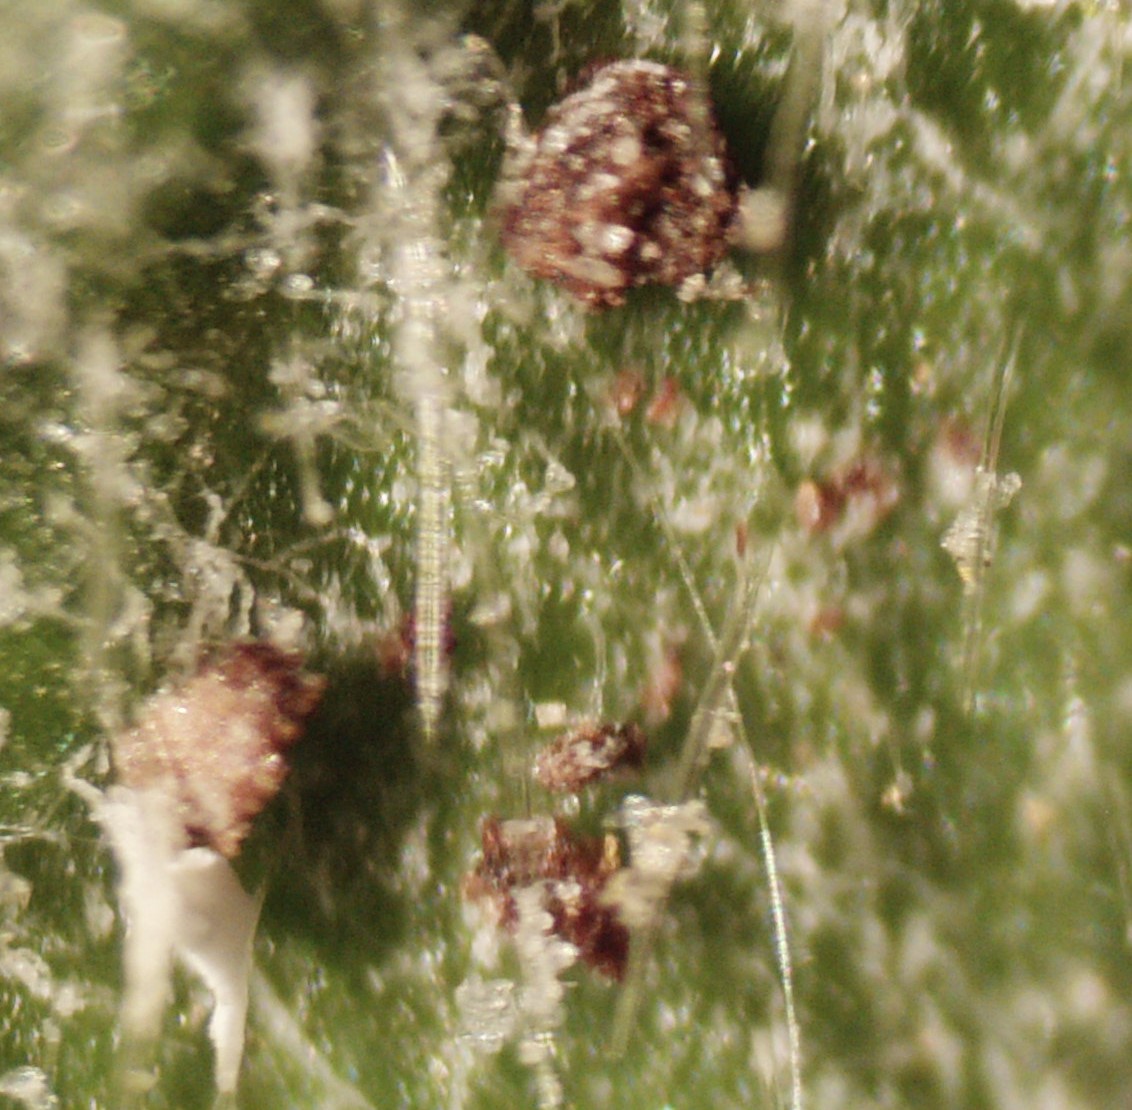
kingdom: Fungi
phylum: Ascomycota
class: Leotiomycetes
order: Helotiales
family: Erysiphaceae
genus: Podosphaera
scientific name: Podosphaera aphanis
